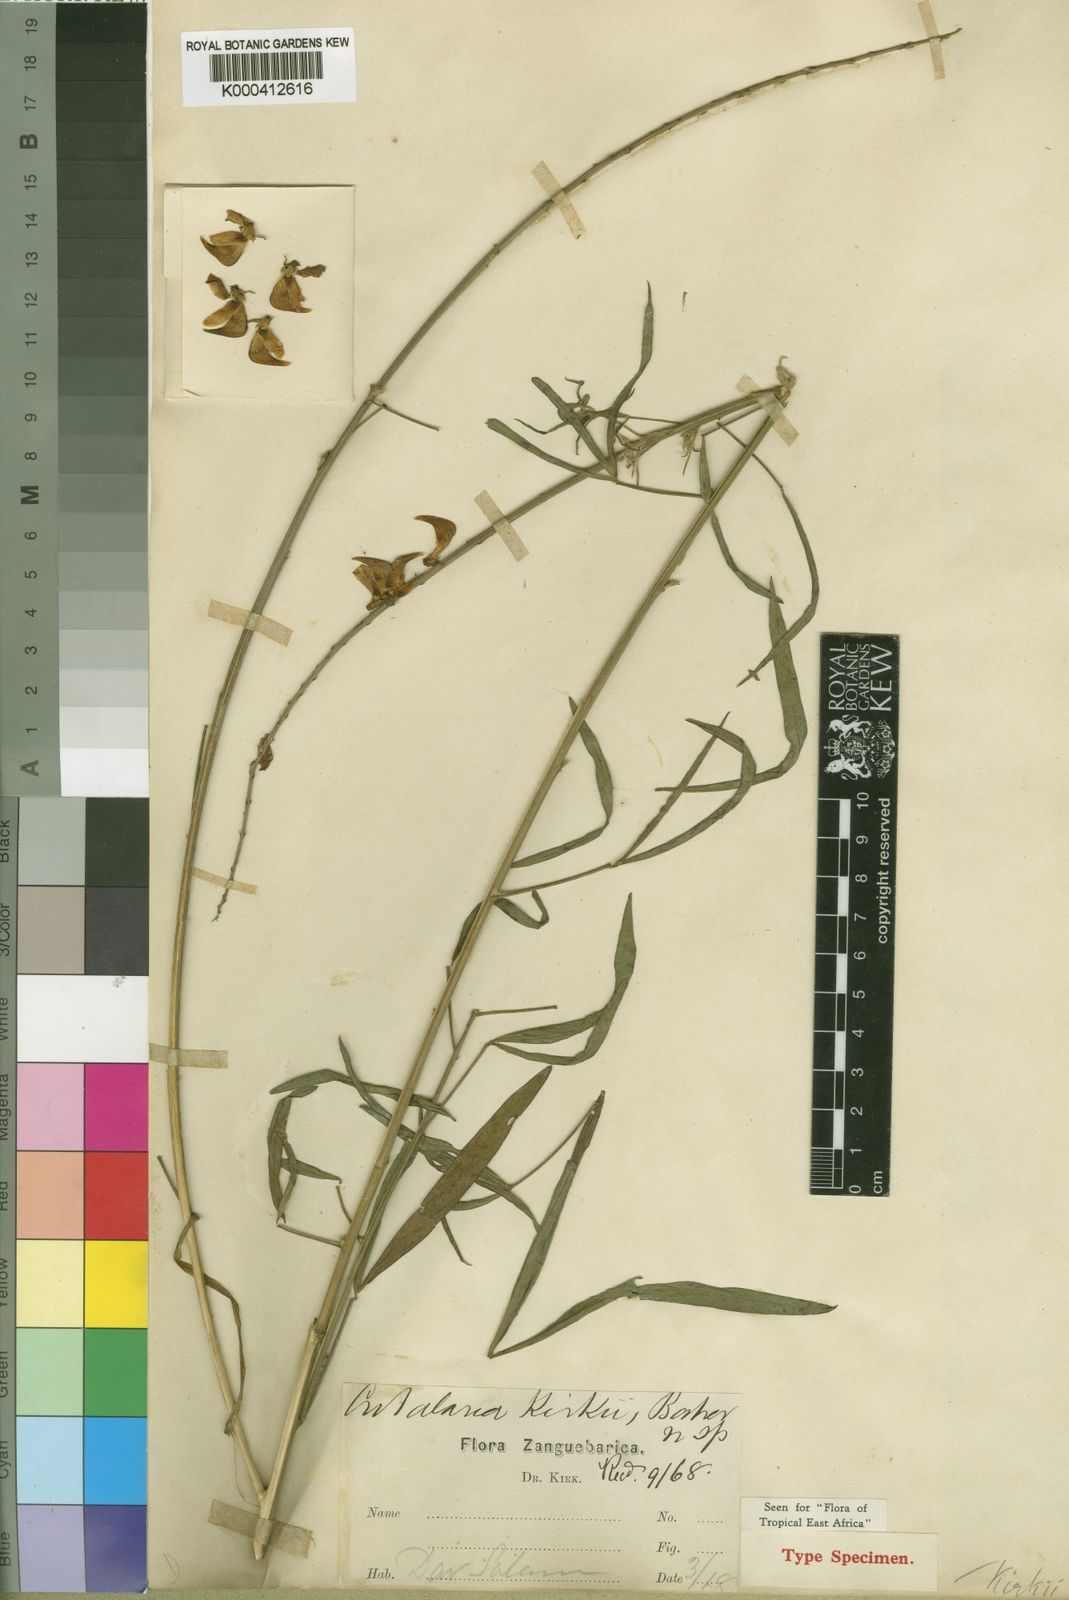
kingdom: Plantae
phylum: Tracheophyta
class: Magnoliopsida
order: Fabales
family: Fabaceae
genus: Crotalaria
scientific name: Crotalaria kirkii
